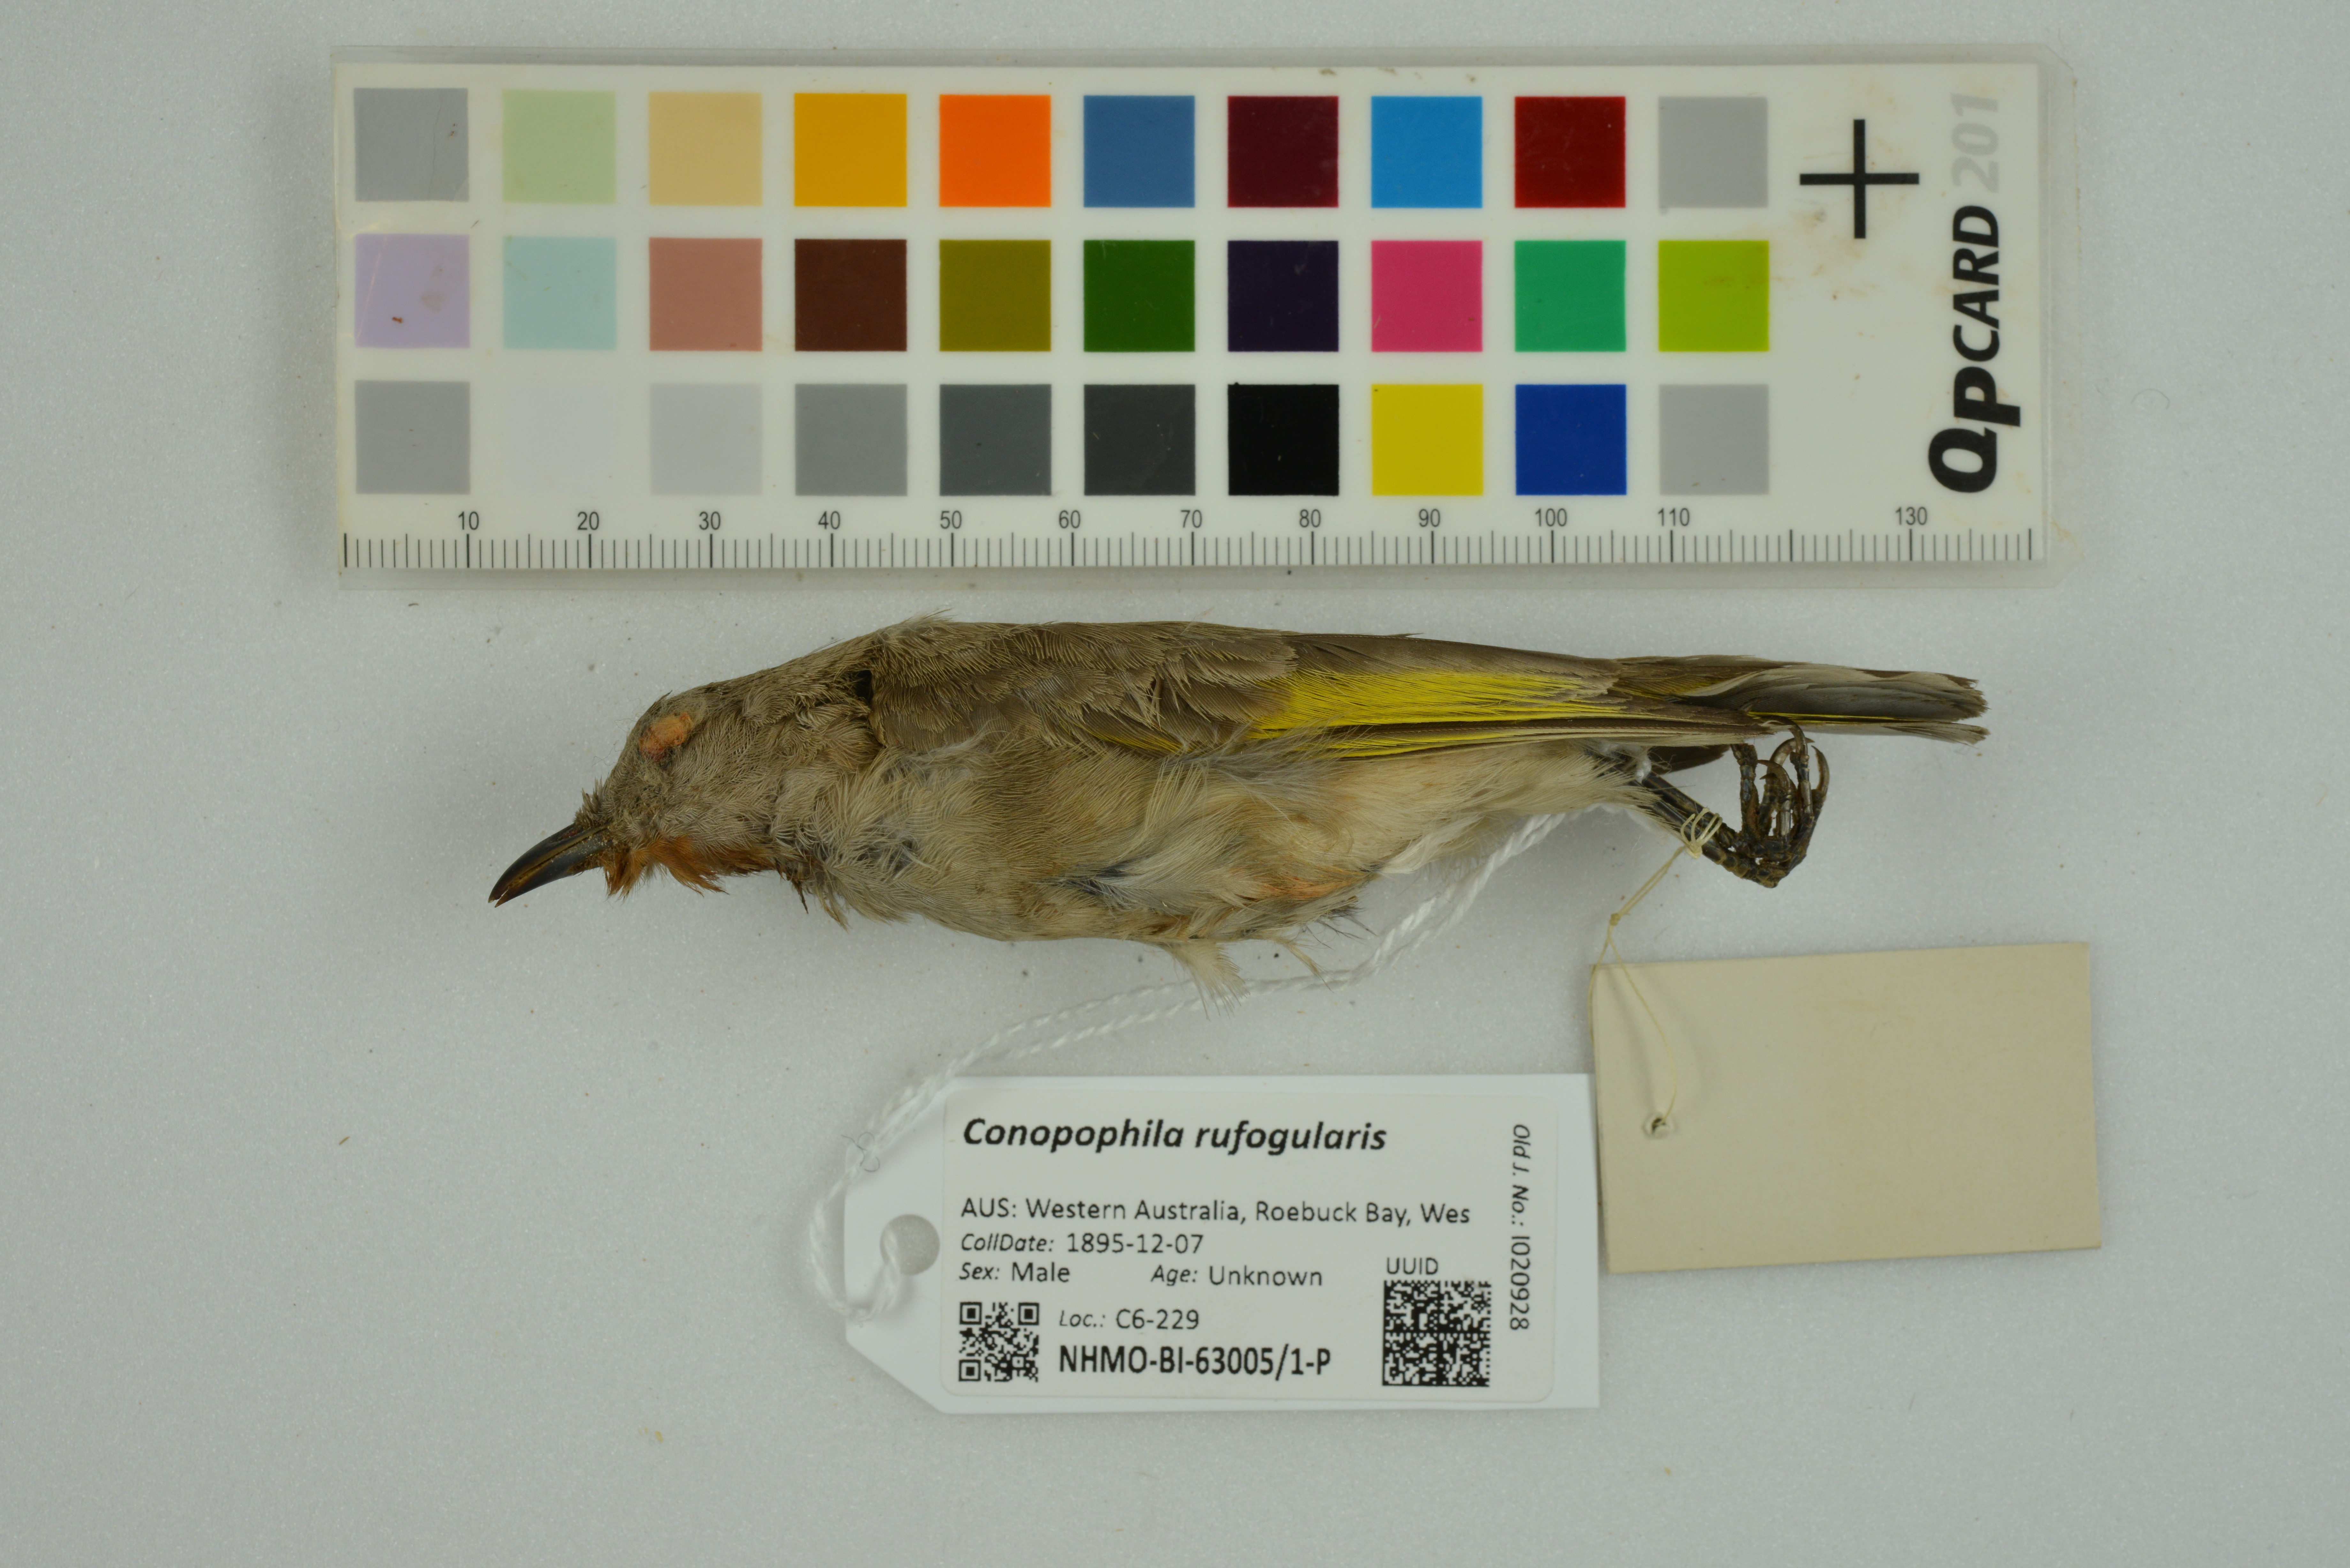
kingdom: Animalia
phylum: Chordata
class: Aves
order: Passeriformes
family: Meliphagidae
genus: Conopophila
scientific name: Conopophila rufogularis
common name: Rufous-throated honeyeater
